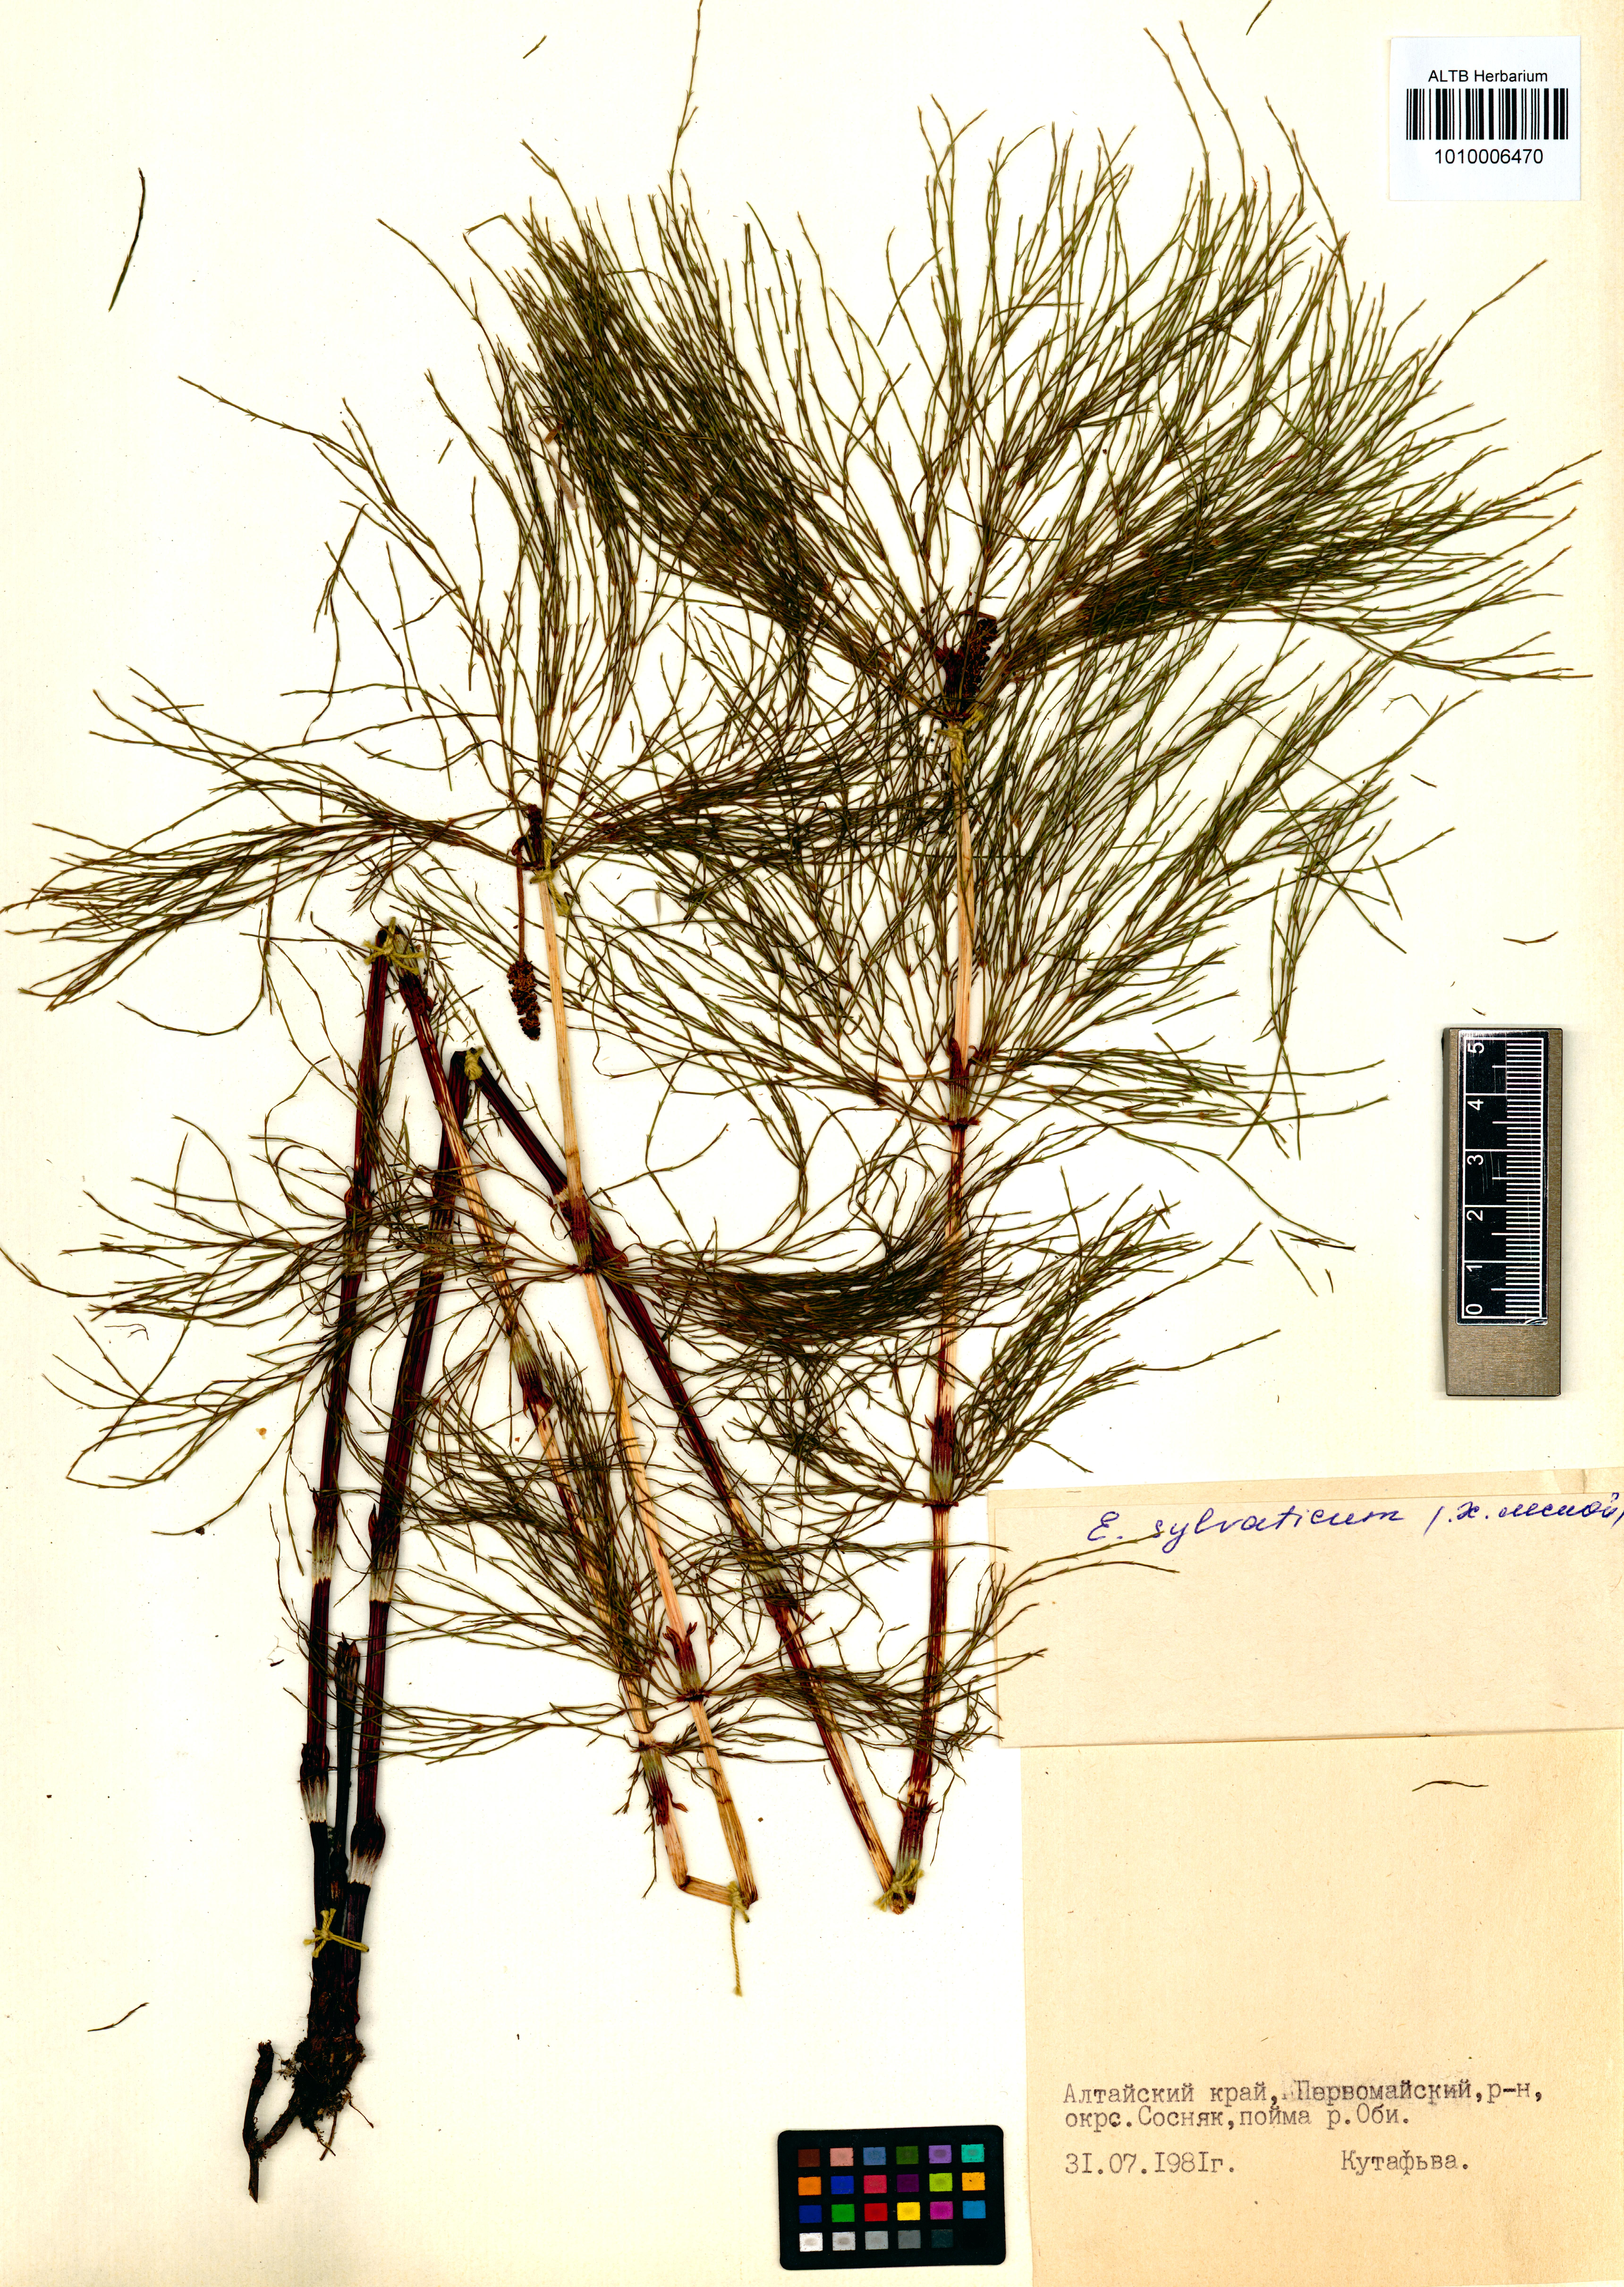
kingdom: Plantae
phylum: Tracheophyta
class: Polypodiopsida
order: Equisetales
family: Equisetaceae
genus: Equisetum
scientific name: Equisetum sylvaticum
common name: Wood horsetail
